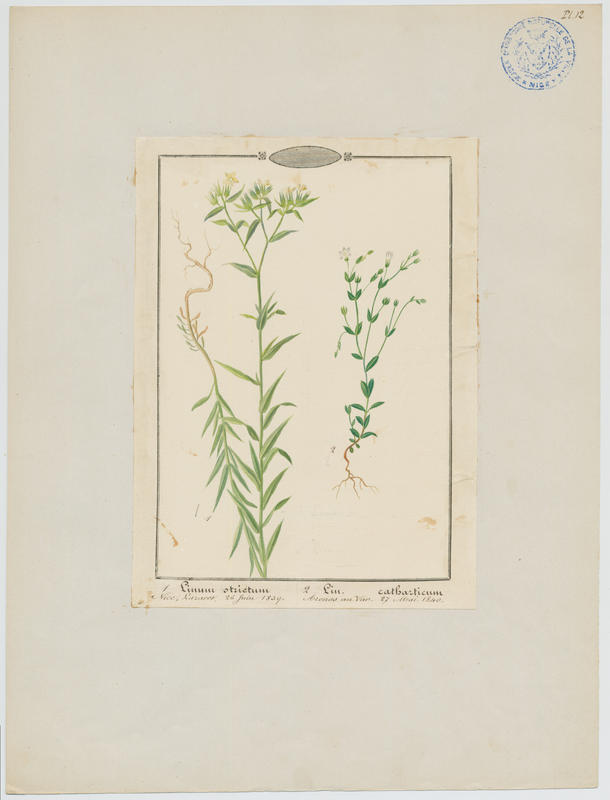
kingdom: Plantae
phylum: Tracheophyta
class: Magnoliopsida
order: Malpighiales
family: Linaceae
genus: Linum
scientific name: Linum catharticum
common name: Fairy flax
